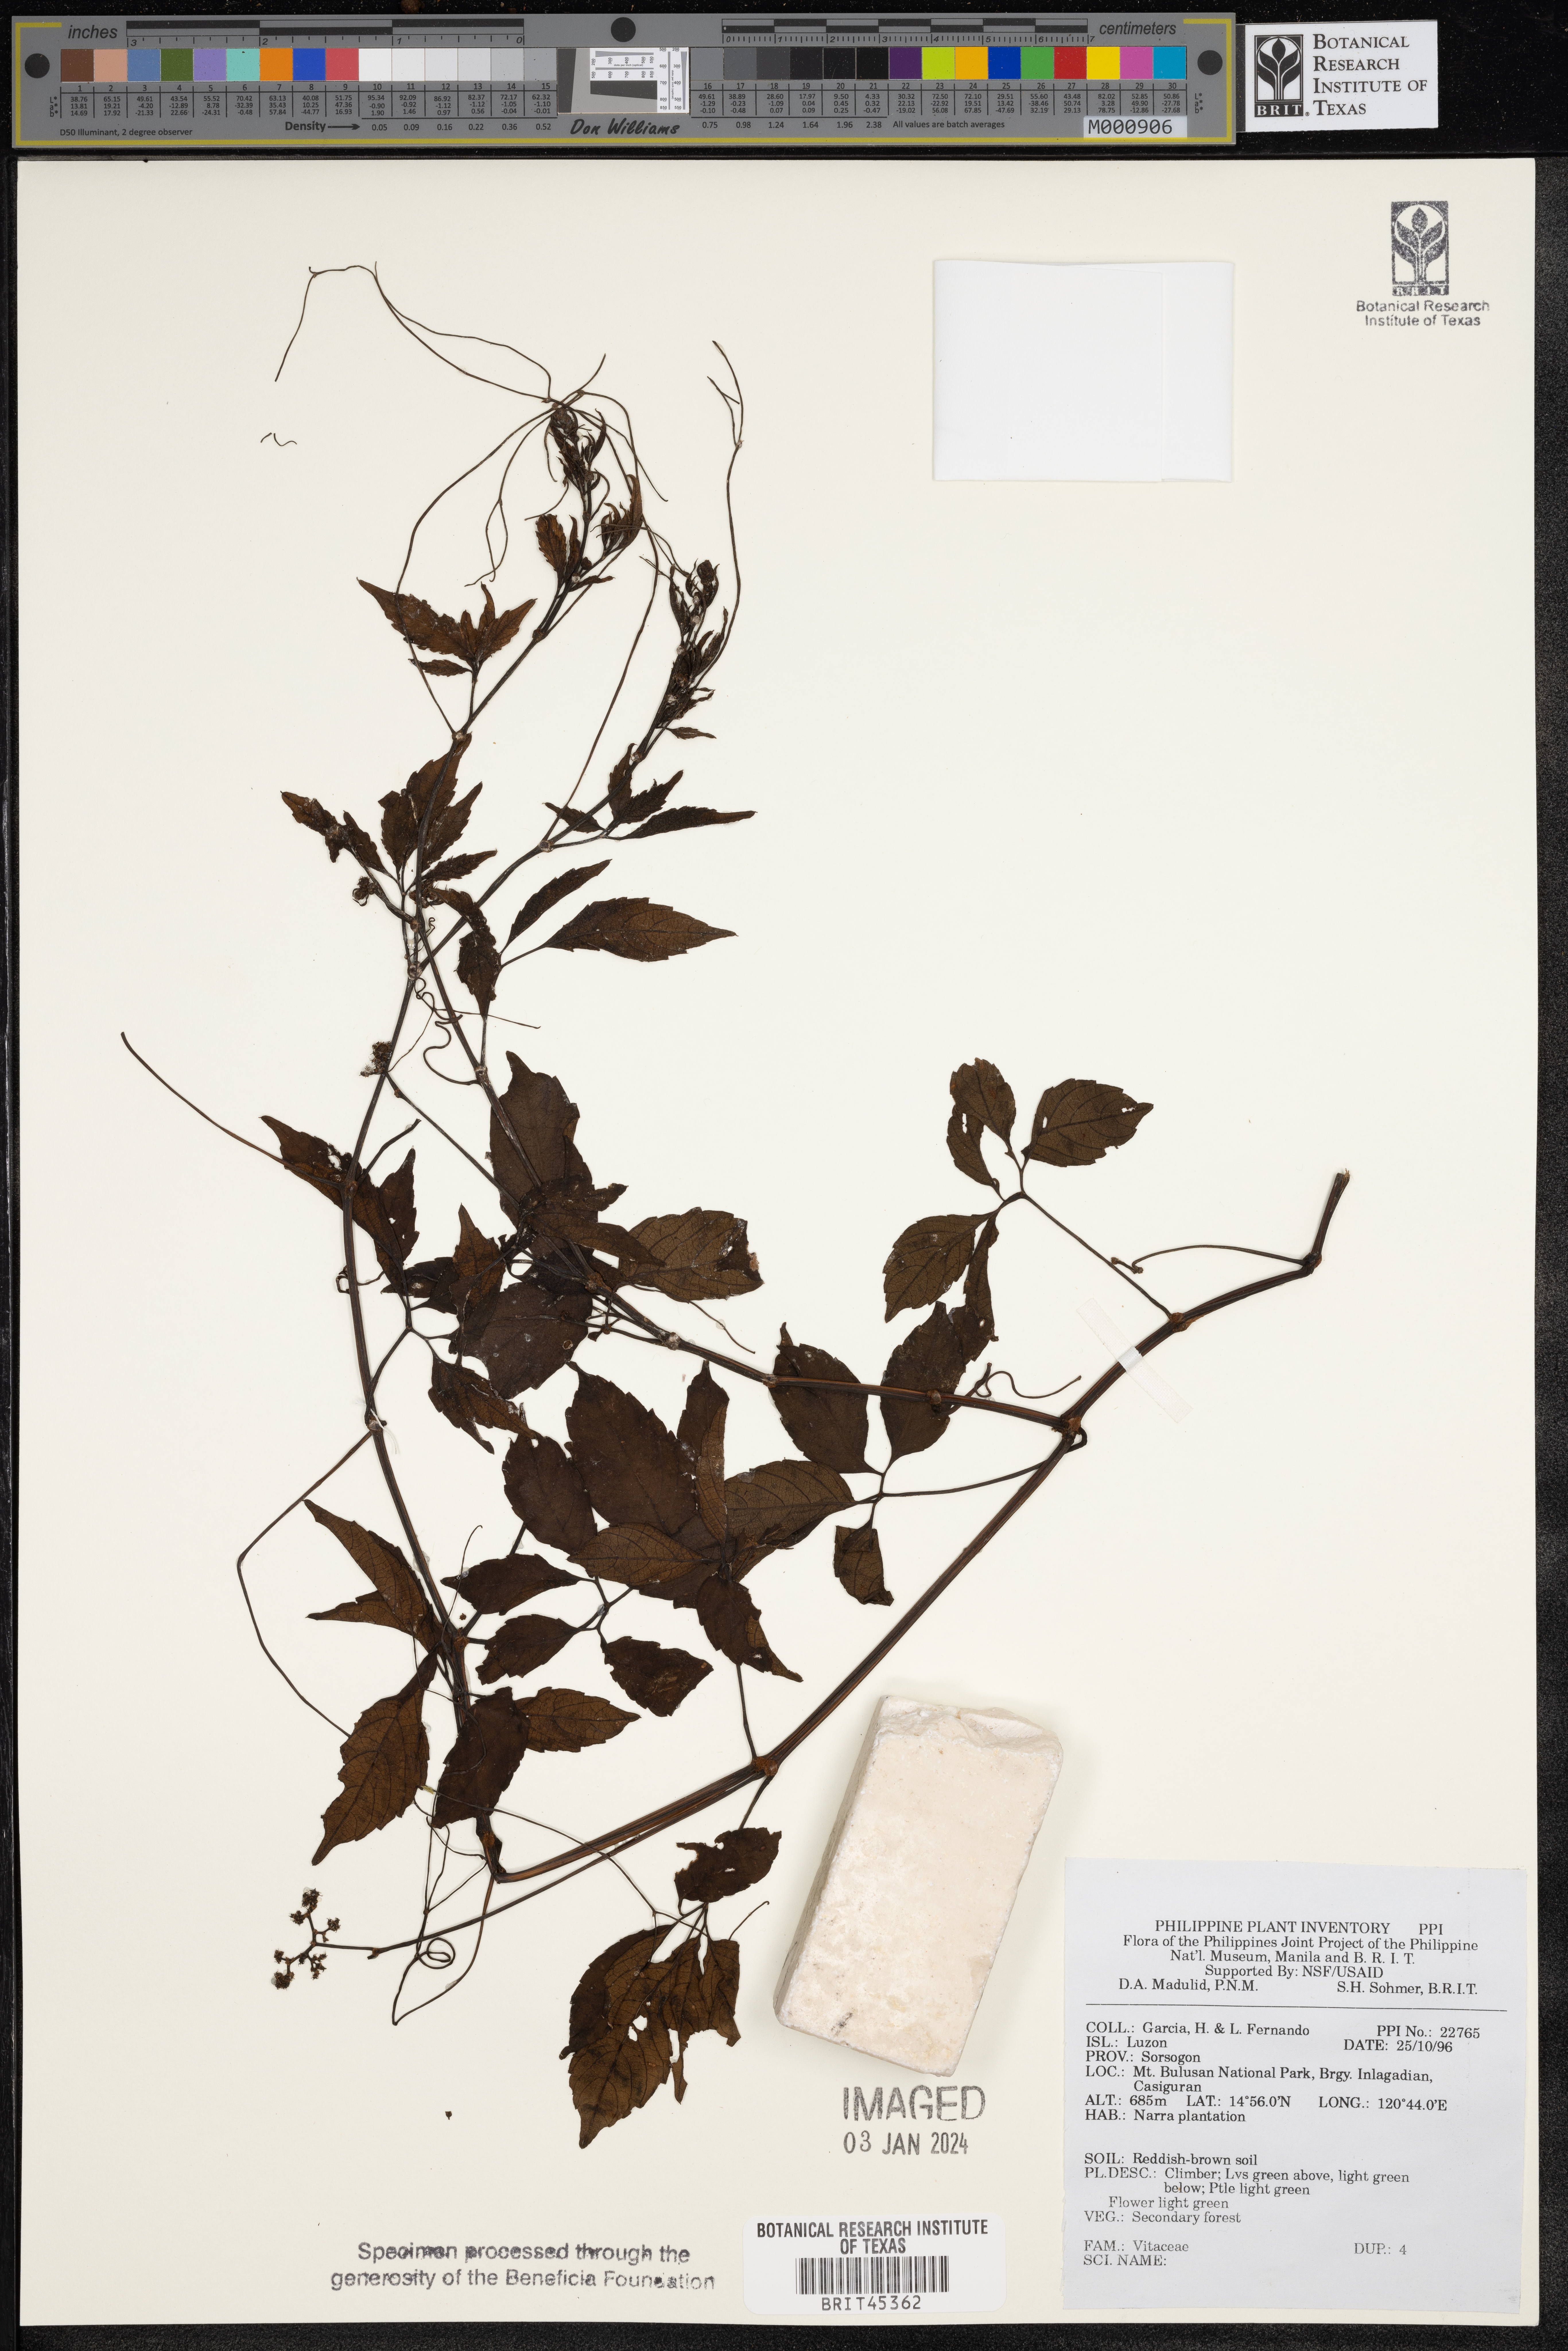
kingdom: Plantae
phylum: Tracheophyta
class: Magnoliopsida
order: Vitales
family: Vitaceae
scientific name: Vitaceae
